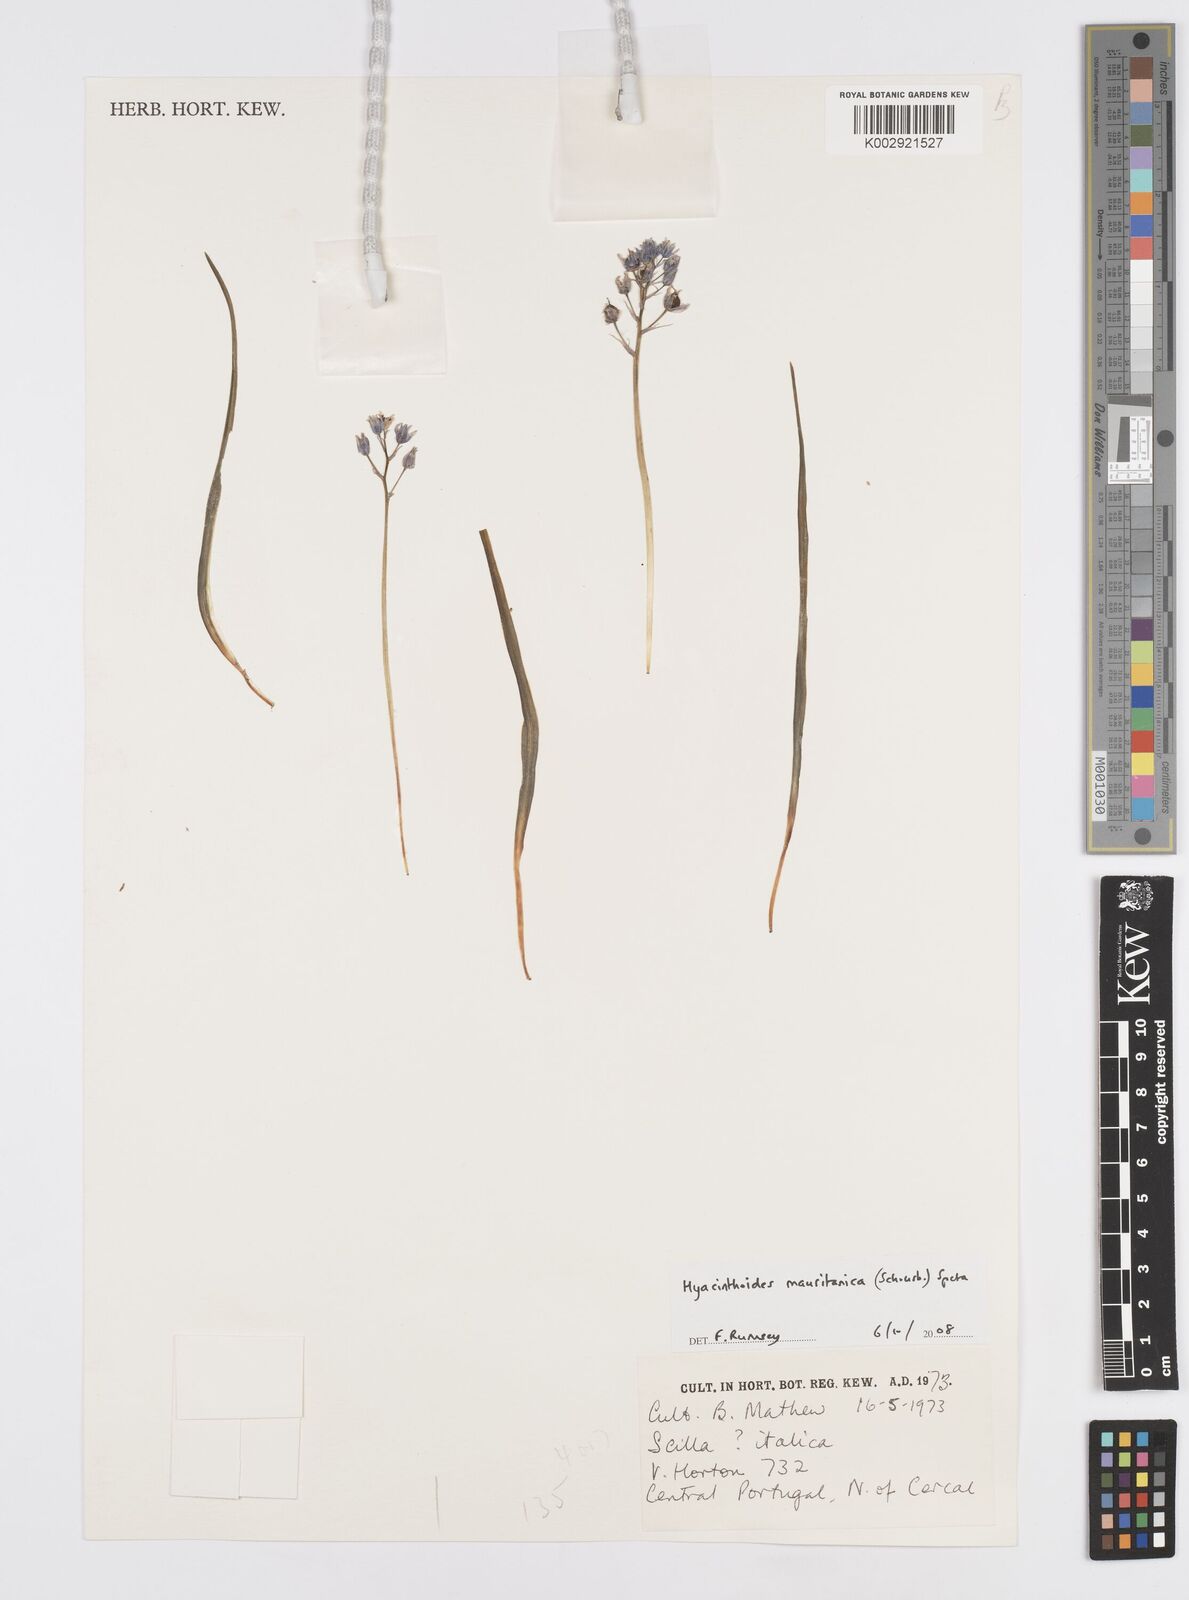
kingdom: Plantae
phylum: Tracheophyta
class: Liliopsida
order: Asparagales
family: Asparagaceae
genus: Hyacinthoides
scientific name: Hyacinthoides mauritanica
